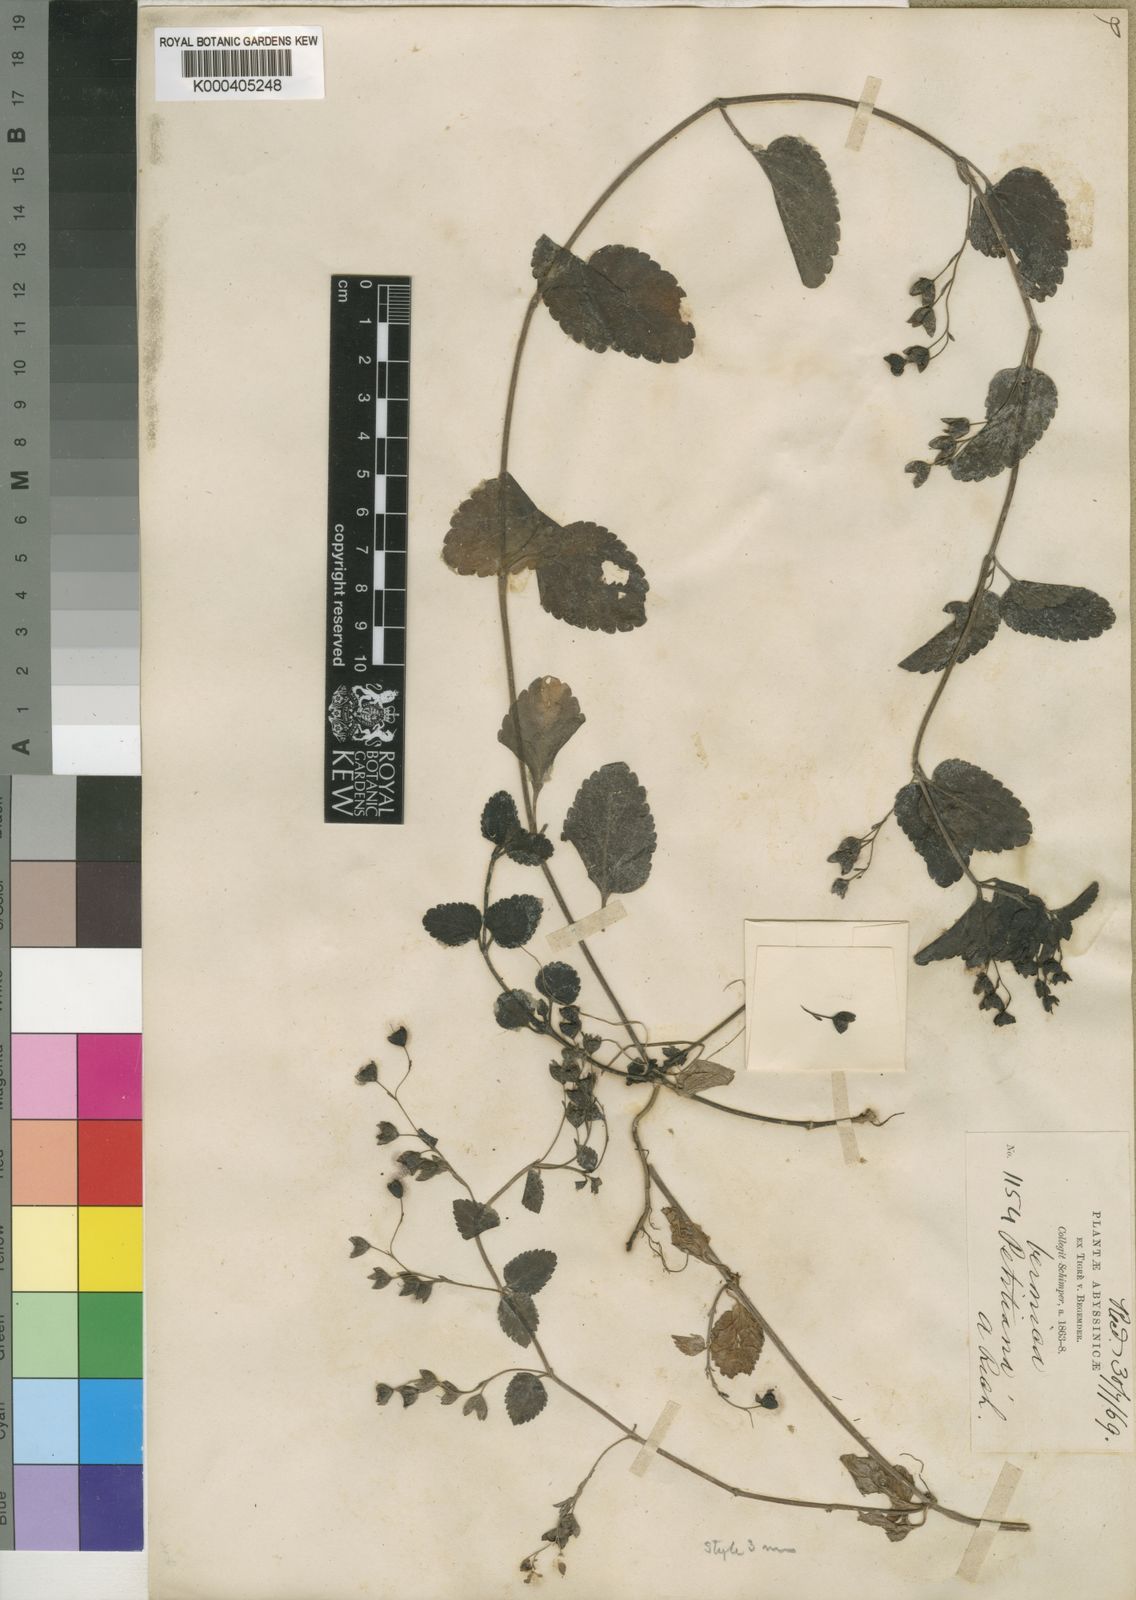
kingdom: Plantae
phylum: Tracheophyta
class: Magnoliopsida
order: Lamiales
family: Plantaginaceae
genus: Veronica
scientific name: Veronica abyssinica
